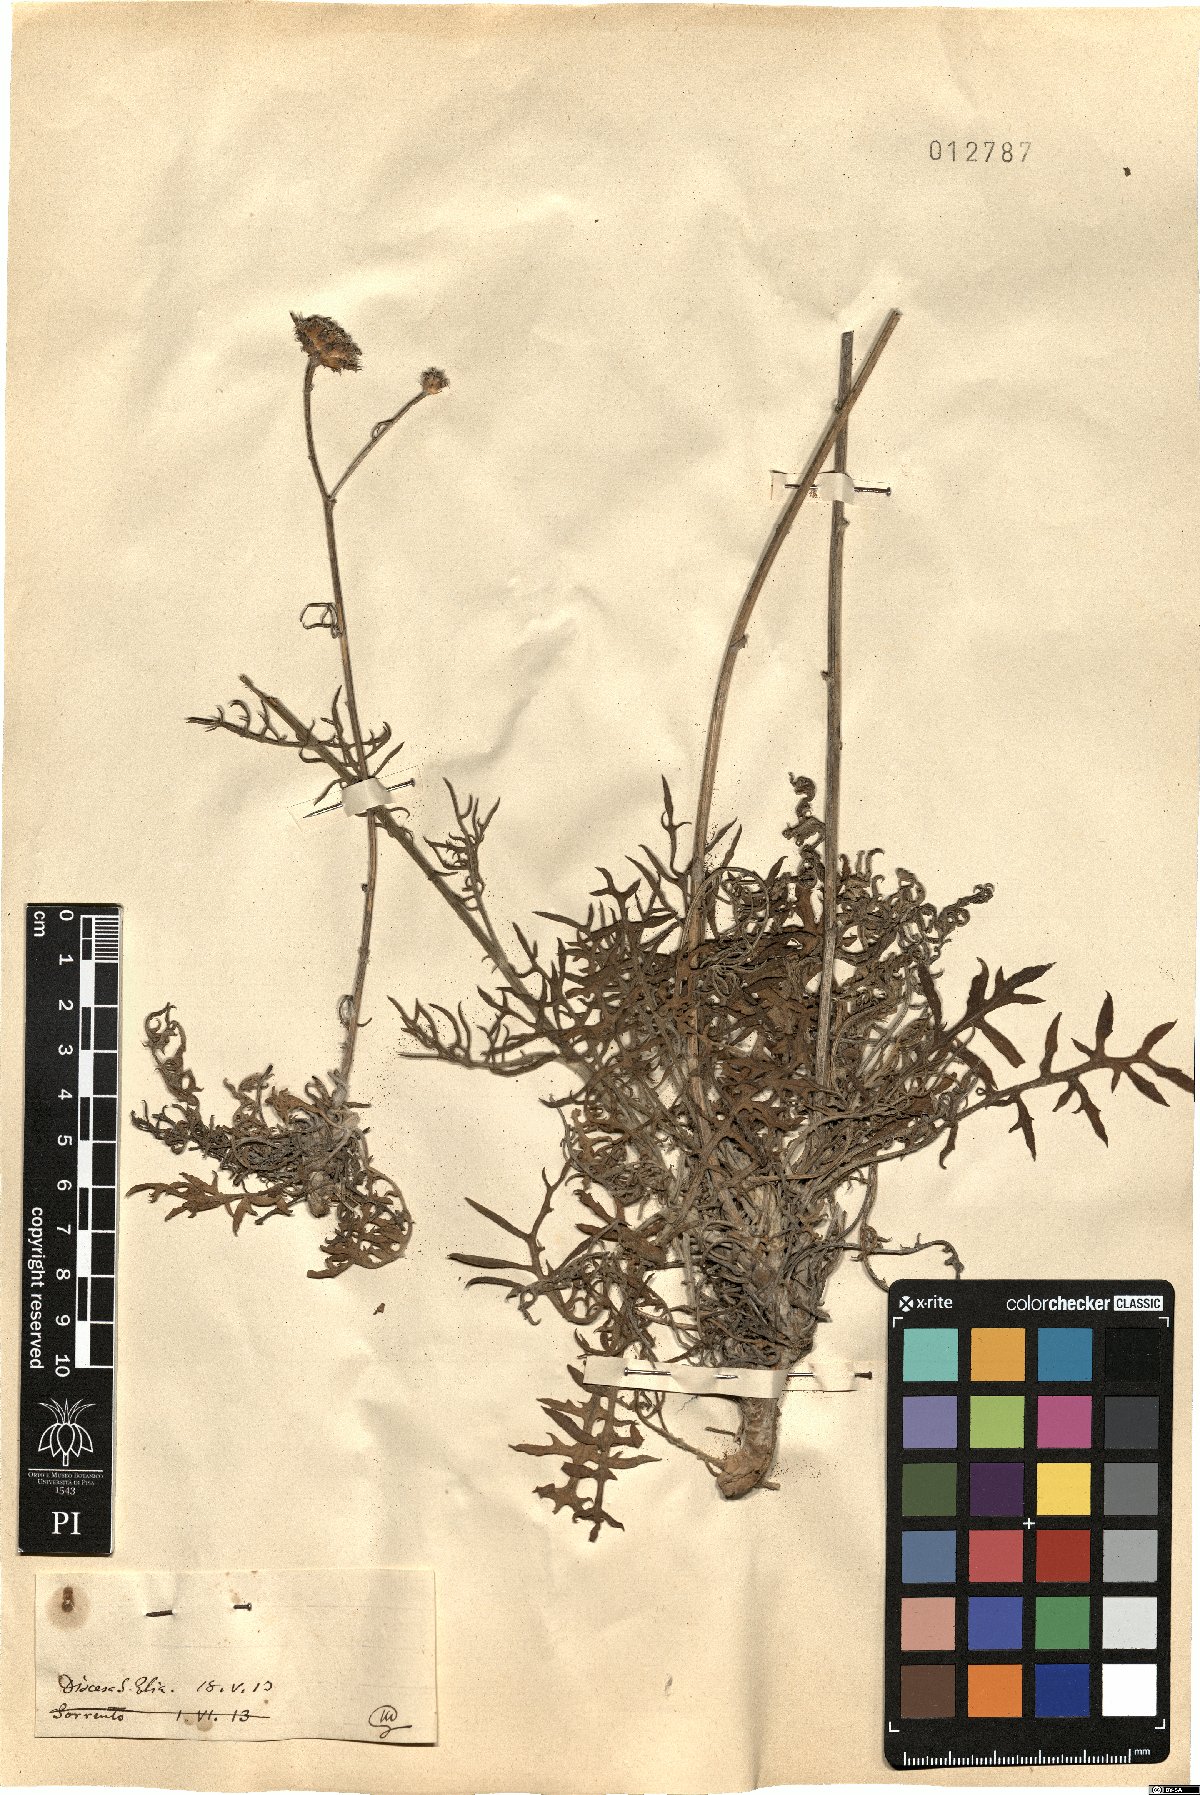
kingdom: Plantae
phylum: Tracheophyta
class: Magnoliopsida
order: Asterales
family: Asteraceae
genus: Centaurea
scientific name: Centaurea
